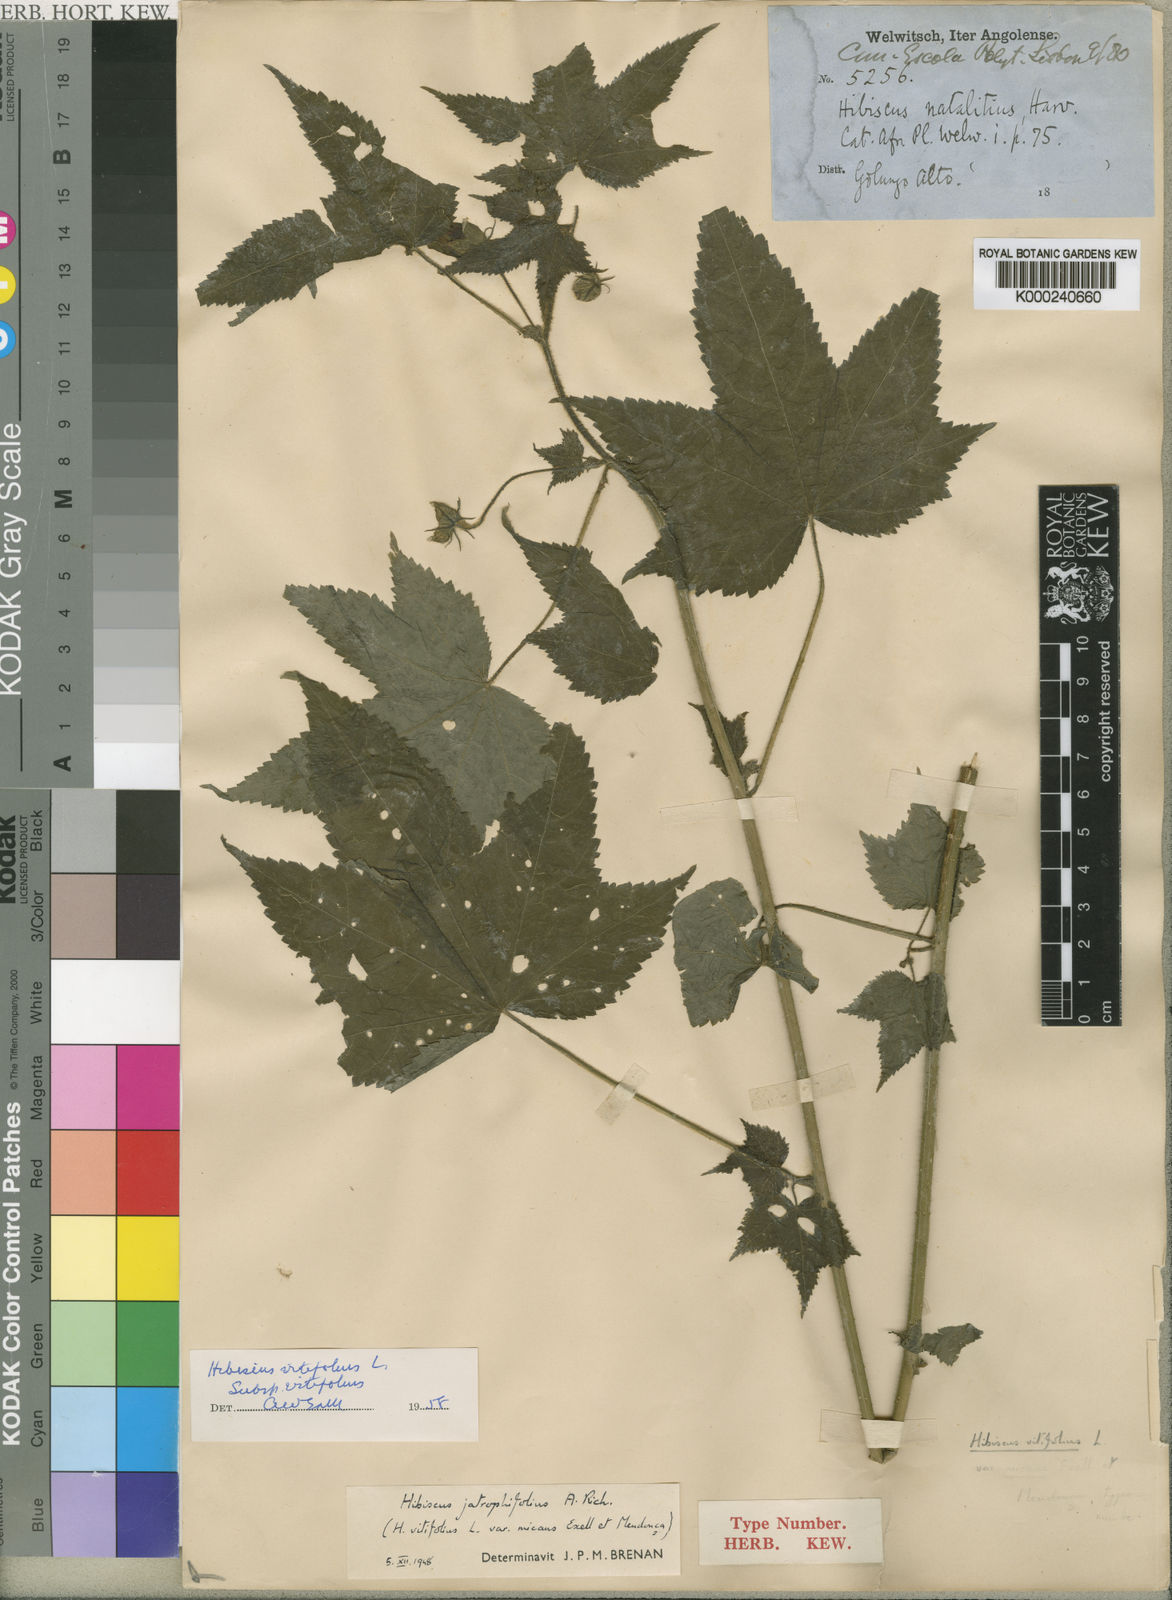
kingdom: Plantae
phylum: Tracheophyta
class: Magnoliopsida
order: Malvales
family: Malvaceae
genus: Hibiscus
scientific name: Hibiscus vitifolius
